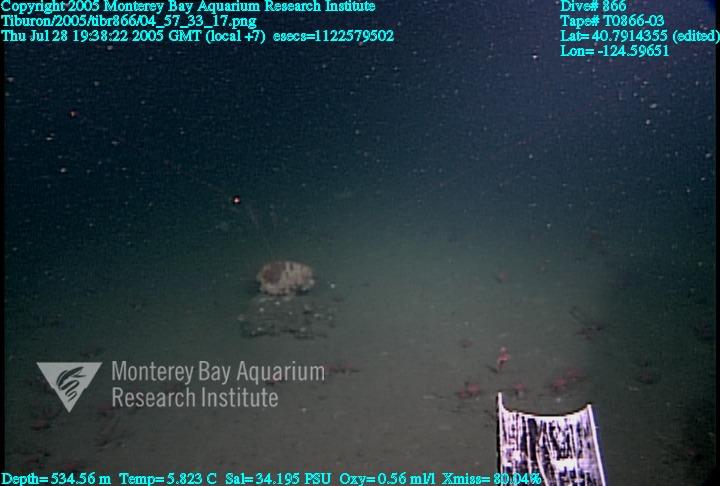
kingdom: Animalia
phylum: Porifera
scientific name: Porifera
